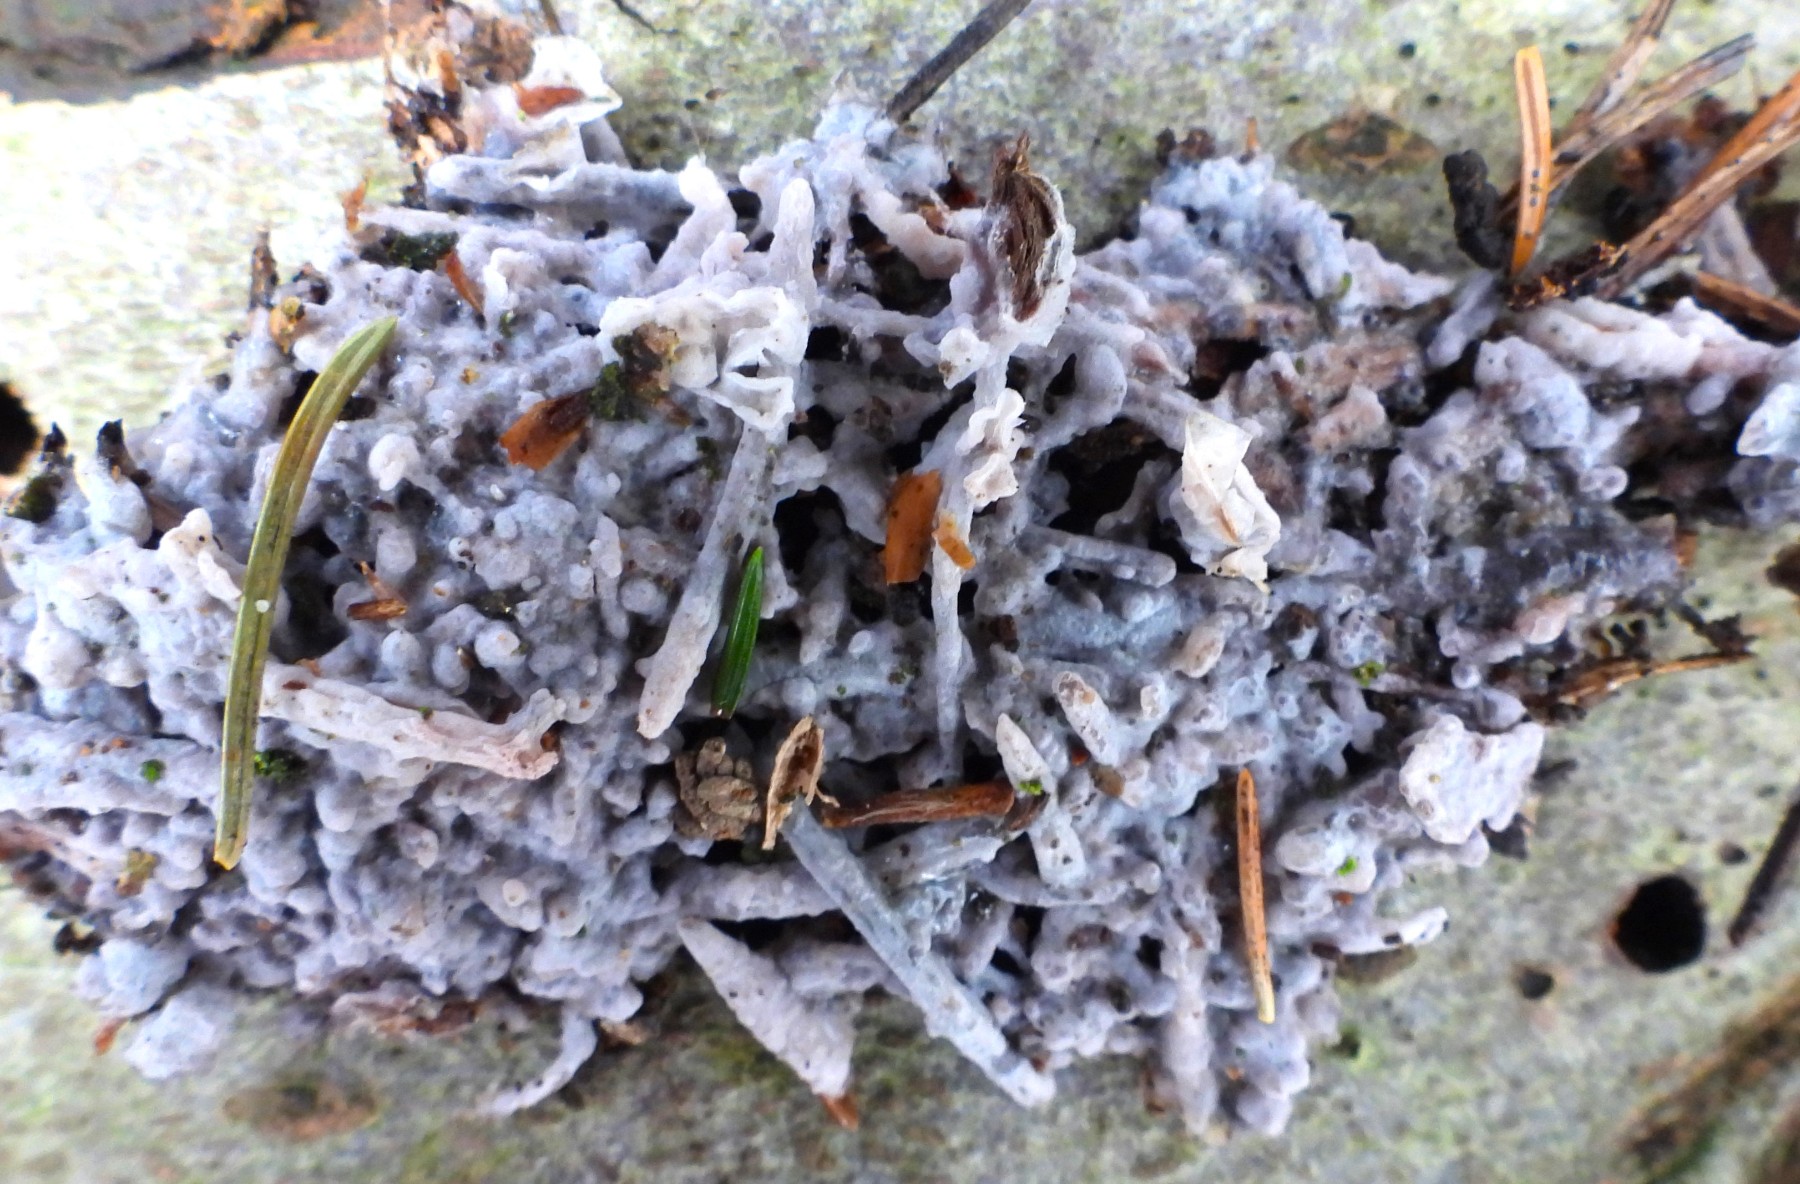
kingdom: Fungi
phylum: Basidiomycota
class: Agaricomycetes
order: Sebacinales
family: Sebacinaceae
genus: Sebacina
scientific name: Sebacina grisea
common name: blågrå bævrehinde
